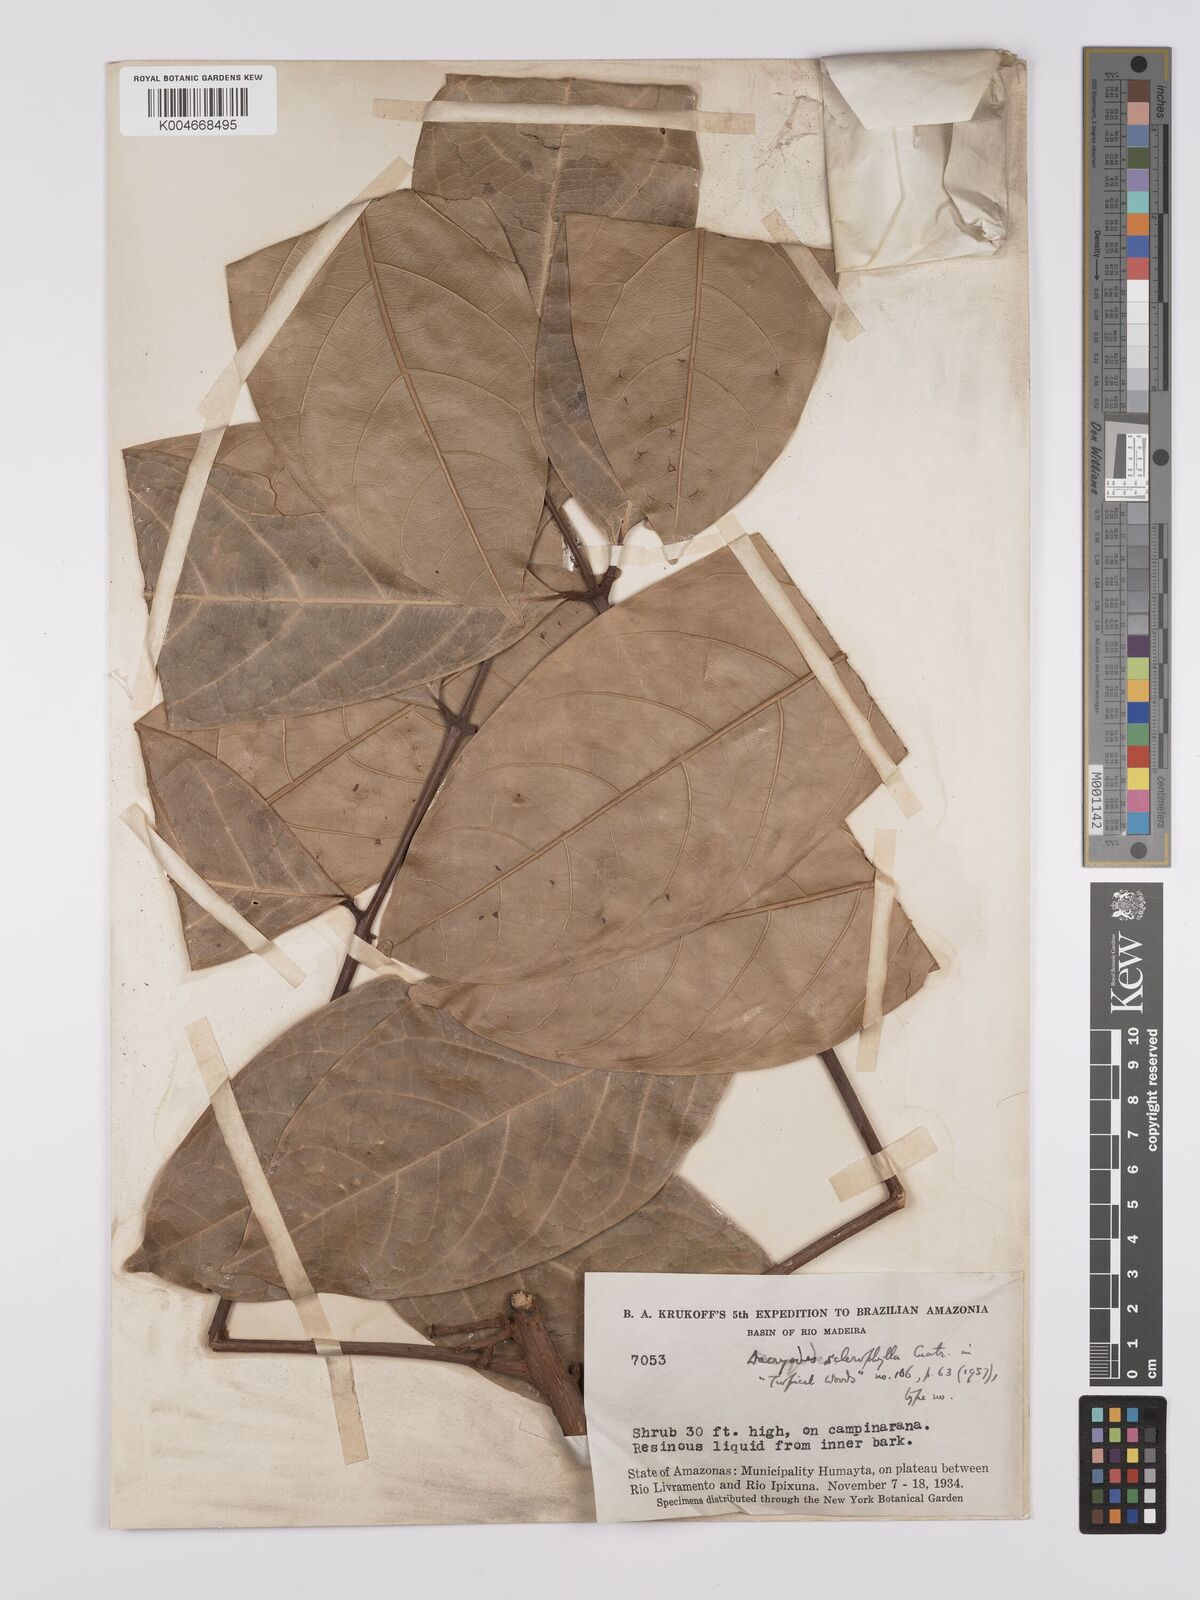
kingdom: Plantae
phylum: Tracheophyta
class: Magnoliopsida
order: Sapindales
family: Burseraceae
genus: Dacryodes
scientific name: Dacryodes sclerophylla
